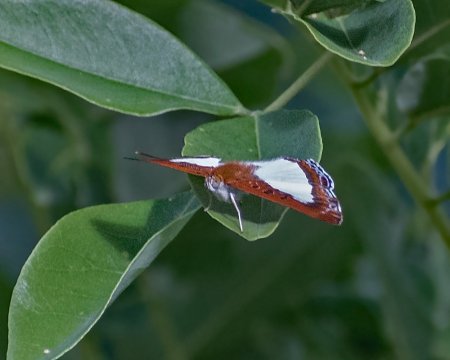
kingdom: Animalia
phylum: Arthropoda
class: Insecta
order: Lepidoptera
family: Riodinidae
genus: Nymula
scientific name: Nymula calyce
